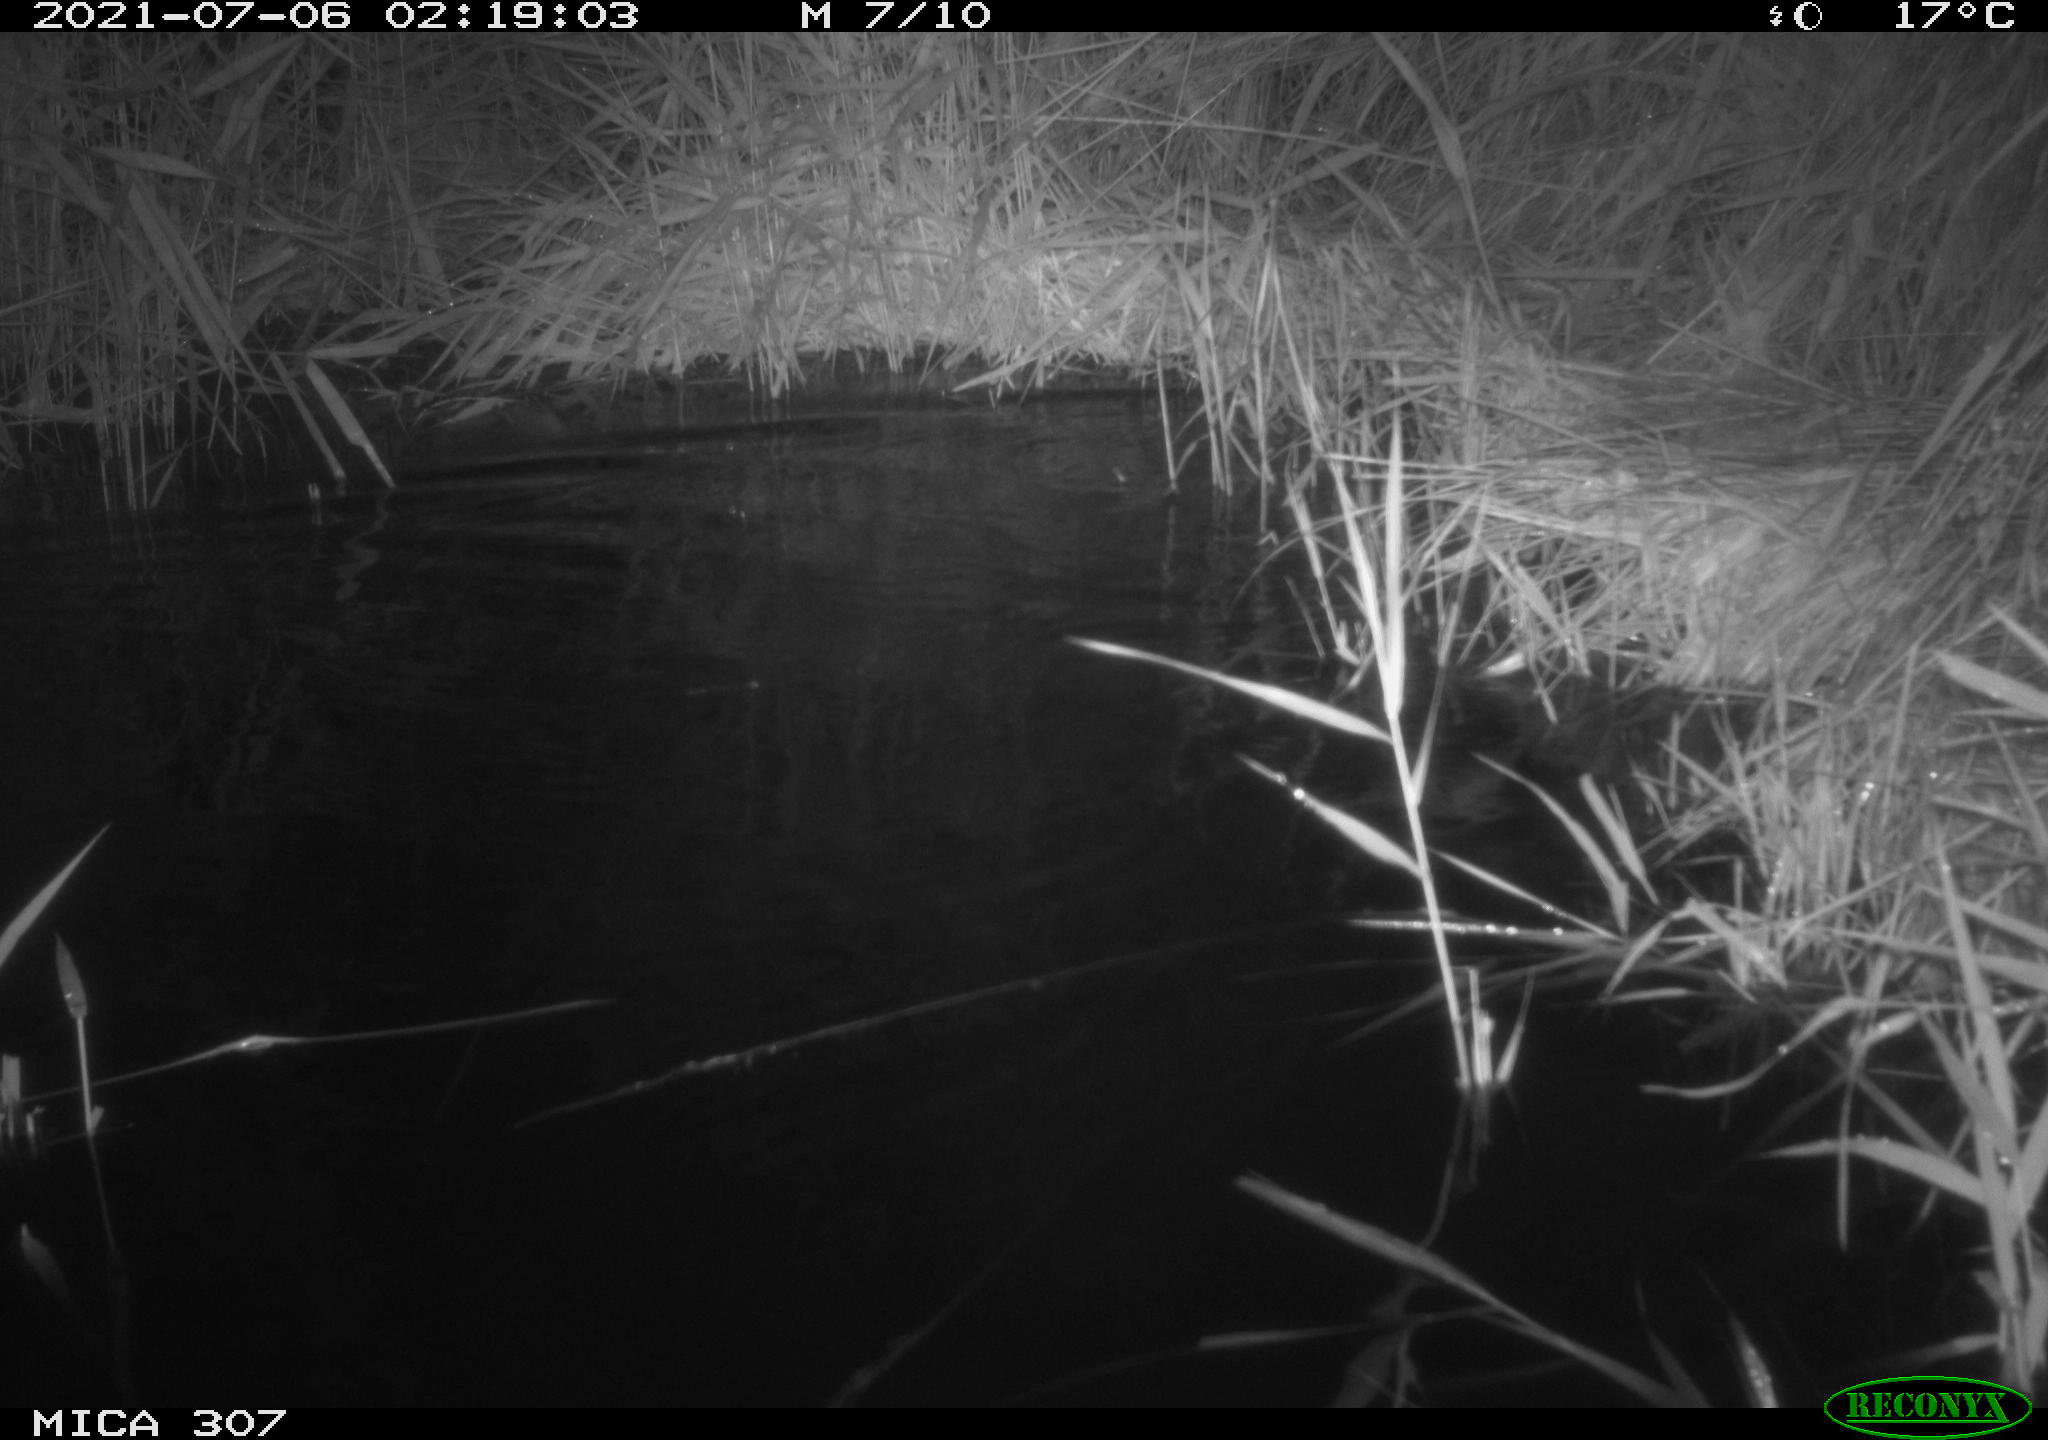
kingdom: Animalia
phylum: Chordata
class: Mammalia
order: Rodentia
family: Muridae
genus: Rattus
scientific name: Rattus norvegicus
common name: Brown rat
